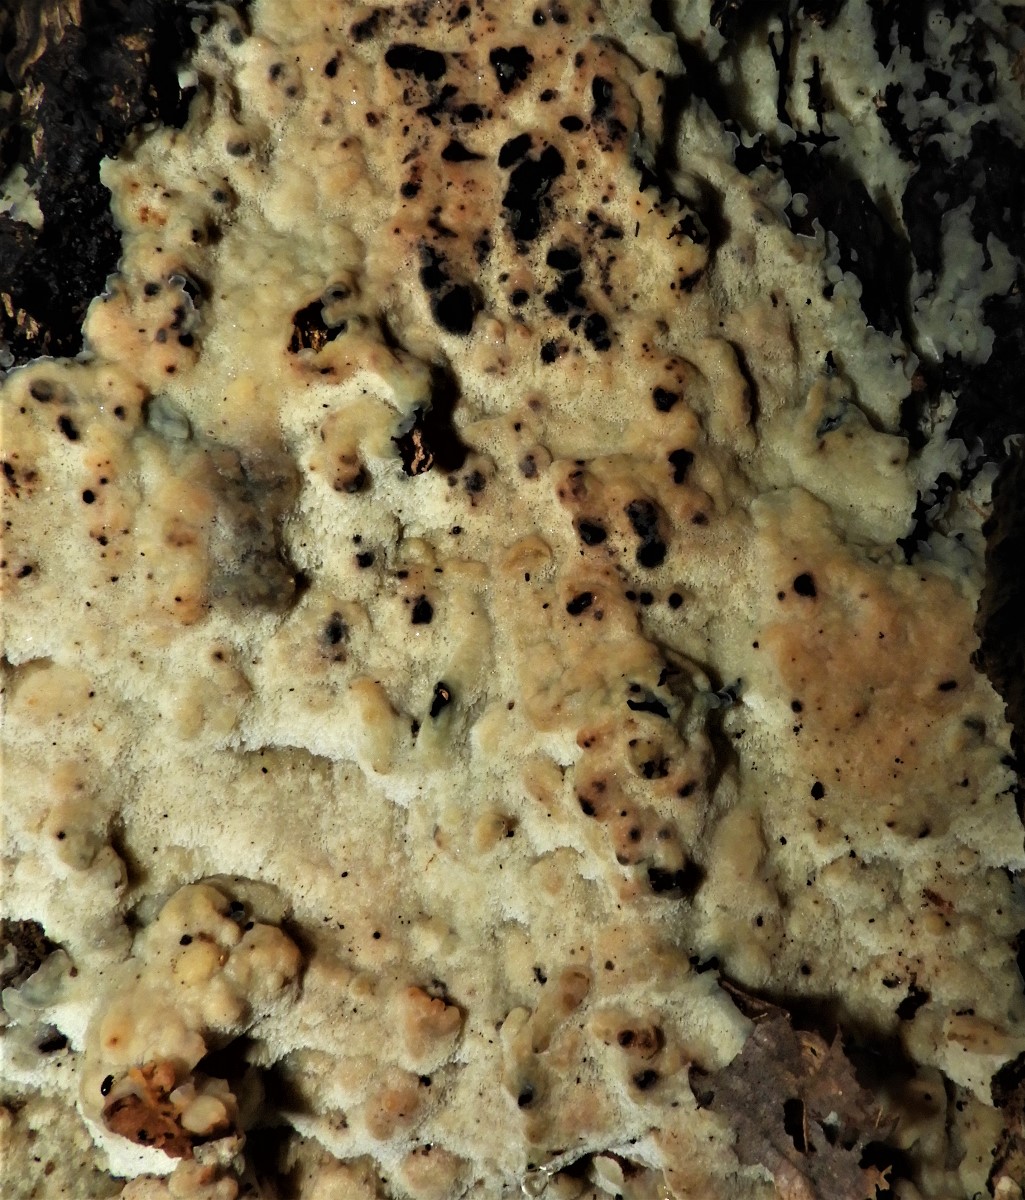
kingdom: Fungi
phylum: Basidiomycota
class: Agaricomycetes
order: Polyporales
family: Meruliaceae
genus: Physisporinus
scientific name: Physisporinus
